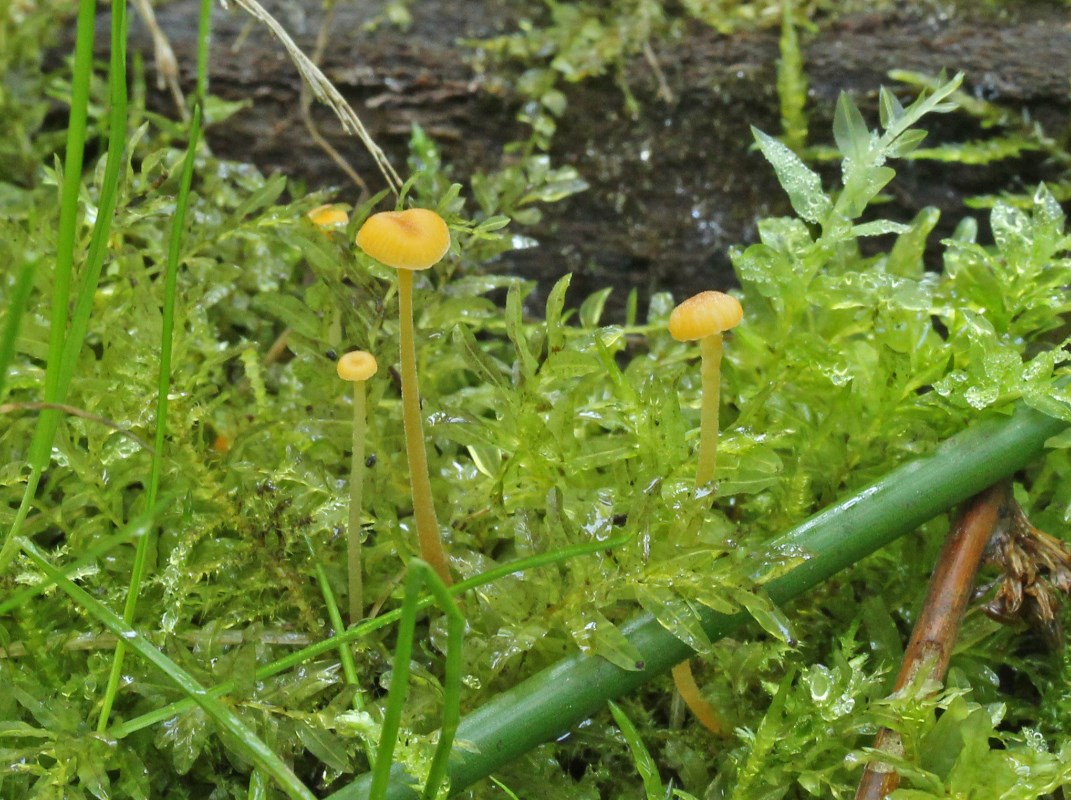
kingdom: Fungi
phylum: Basidiomycota
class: Agaricomycetes
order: Hymenochaetales
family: Rickenellaceae
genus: Rickenella
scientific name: Rickenella fibula
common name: orange mosnavlehat
